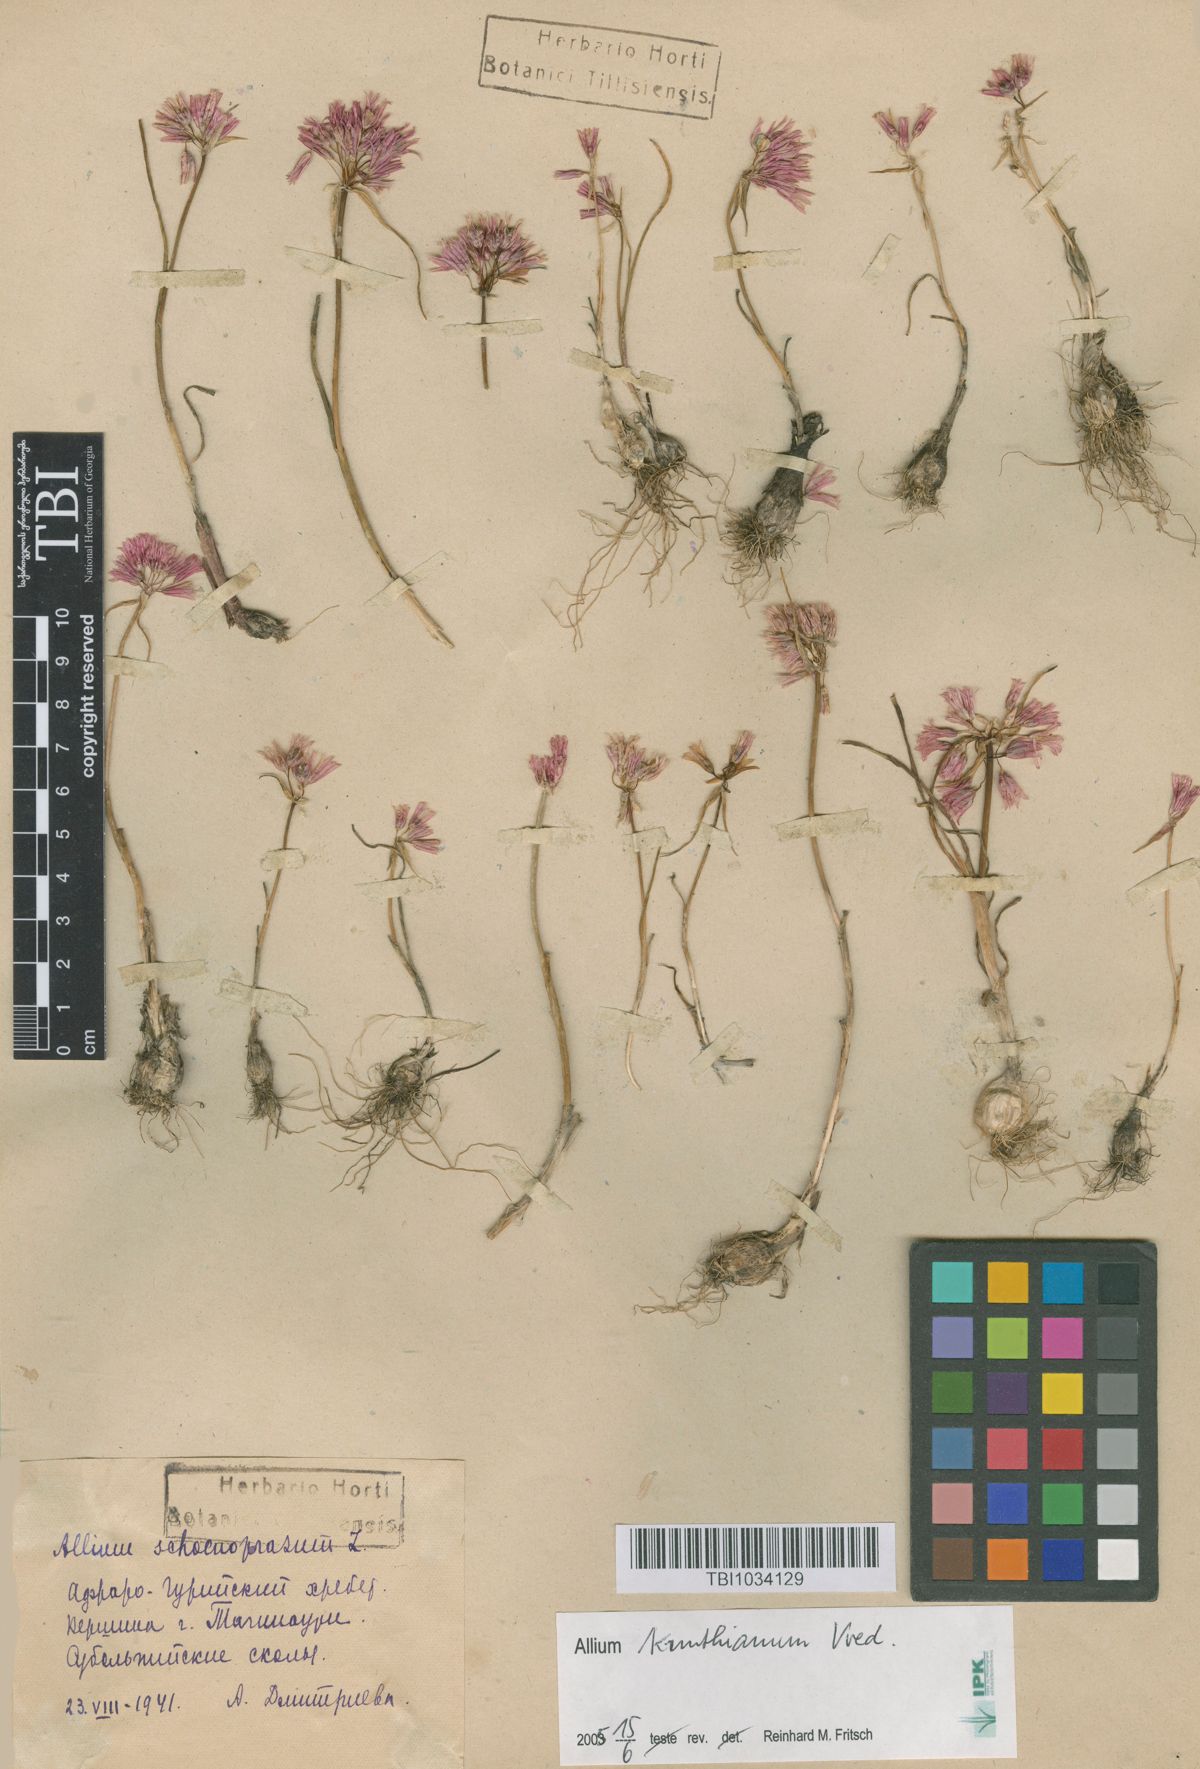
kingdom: Plantae
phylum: Tracheophyta
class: Liliopsida
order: Asparagales
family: Amaryllidaceae
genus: Allium
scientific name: Allium schoenoprasum
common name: Chives
